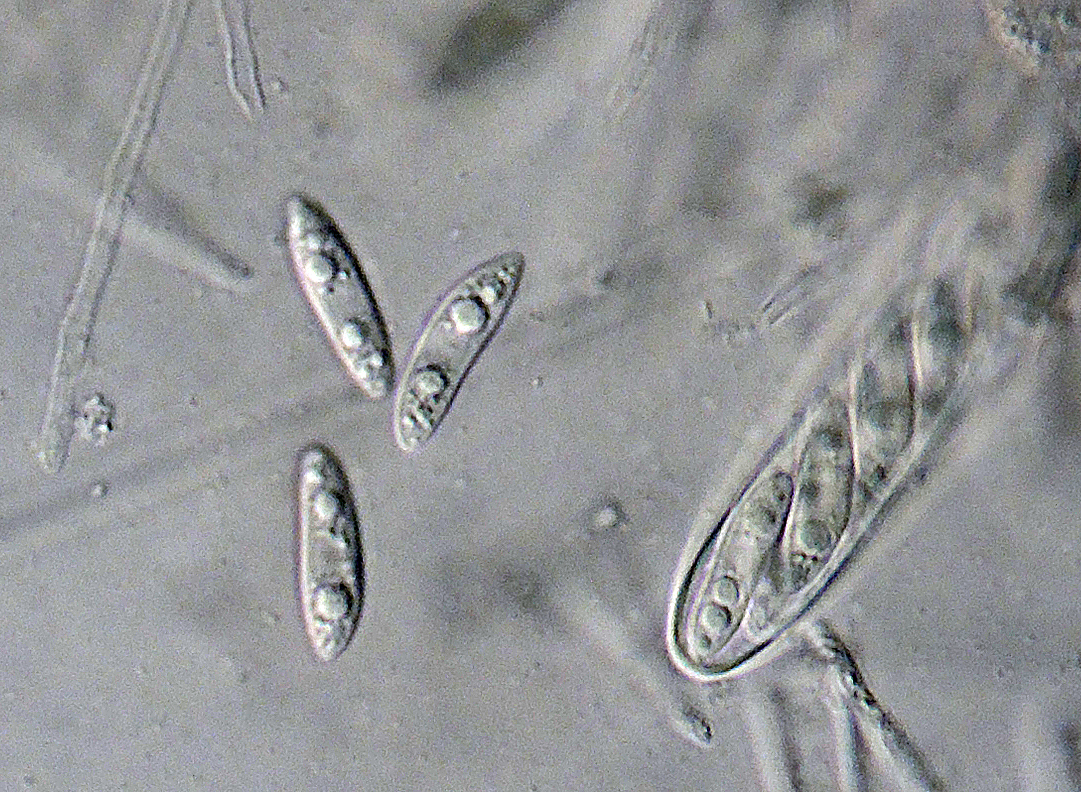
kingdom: Fungi
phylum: Ascomycota
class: Leotiomycetes
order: Helotiales
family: Helotiaceae
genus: Hymenoscyphus
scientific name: Hymenoscyphus epiphyllus
